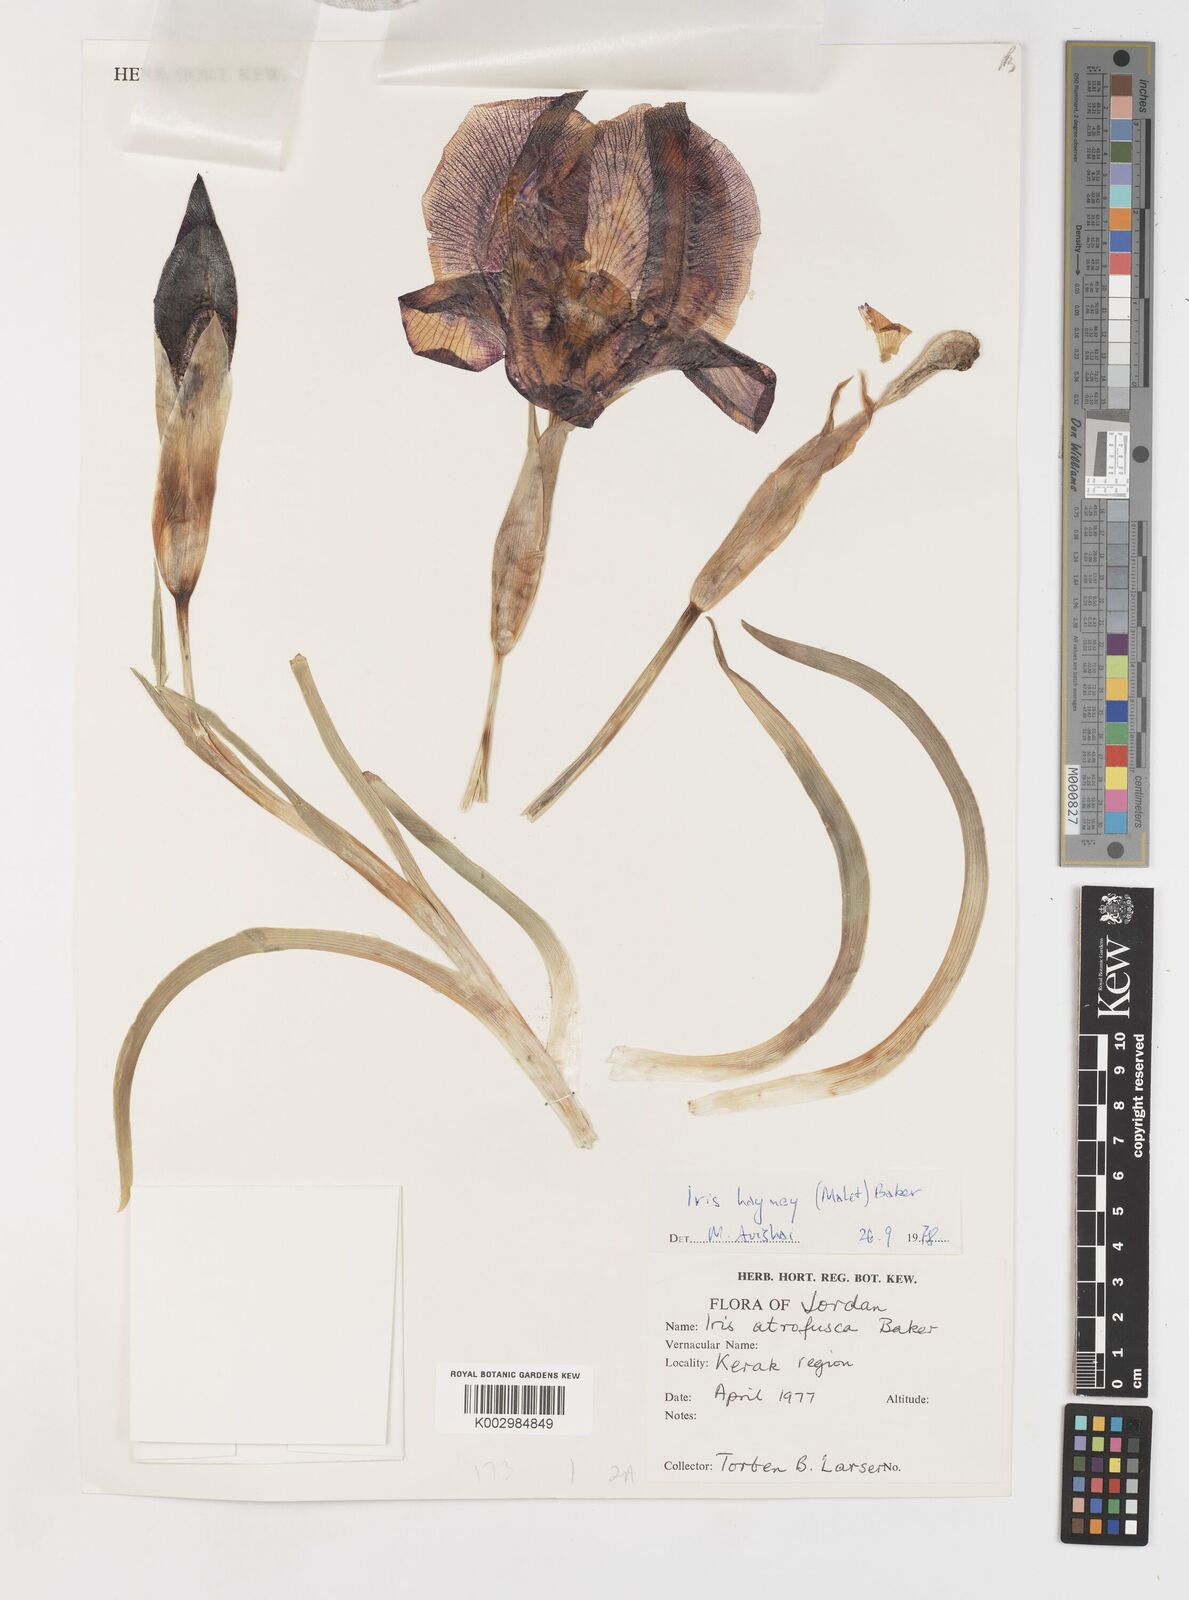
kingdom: Plantae
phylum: Tracheophyta
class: Liliopsida
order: Asparagales
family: Iridaceae
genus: Iris
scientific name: Iris atrofusca
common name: Asshafa iris
